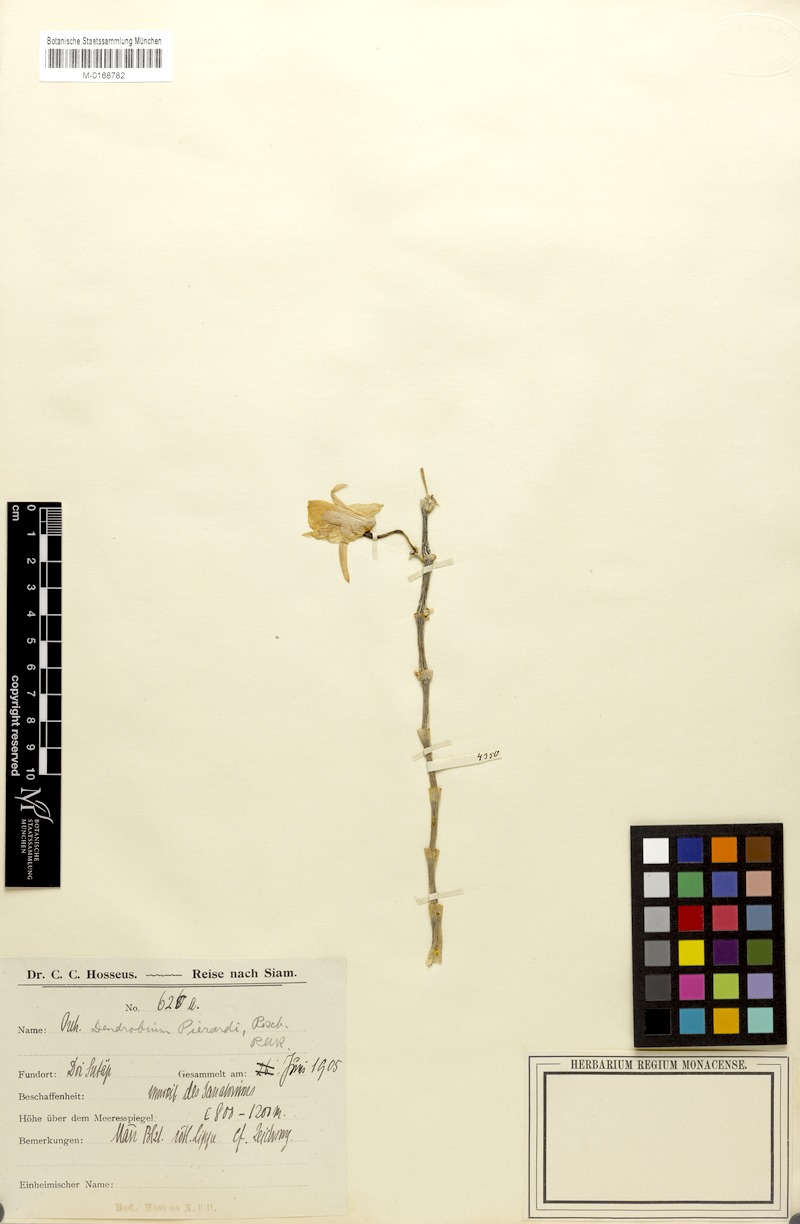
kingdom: Plantae
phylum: Tracheophyta
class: Liliopsida
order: Asparagales
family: Orchidaceae
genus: Dendrobium
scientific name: Dendrobium aphyllum
